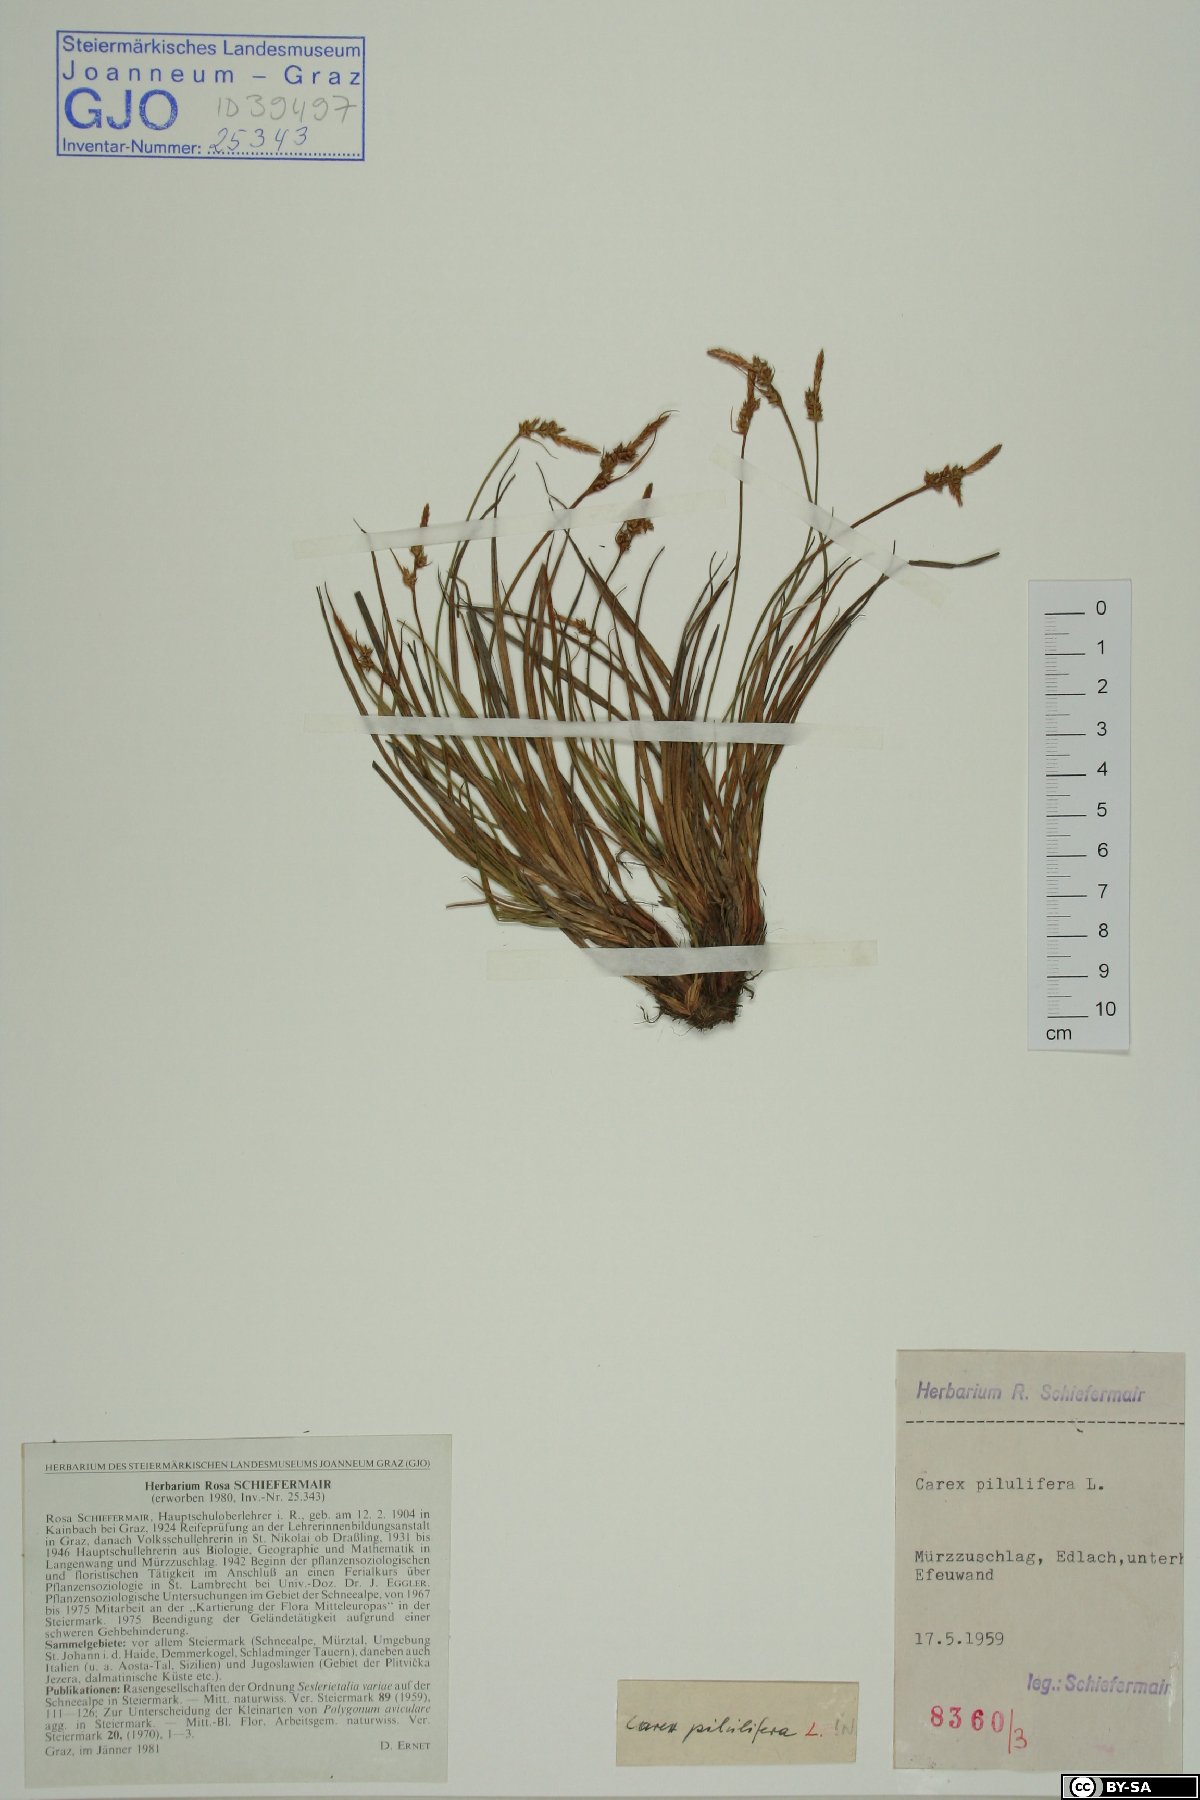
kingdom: Plantae
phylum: Tracheophyta
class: Liliopsida
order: Poales
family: Cyperaceae
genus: Carex
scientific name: Carex pilulifera
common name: Pill sedge
